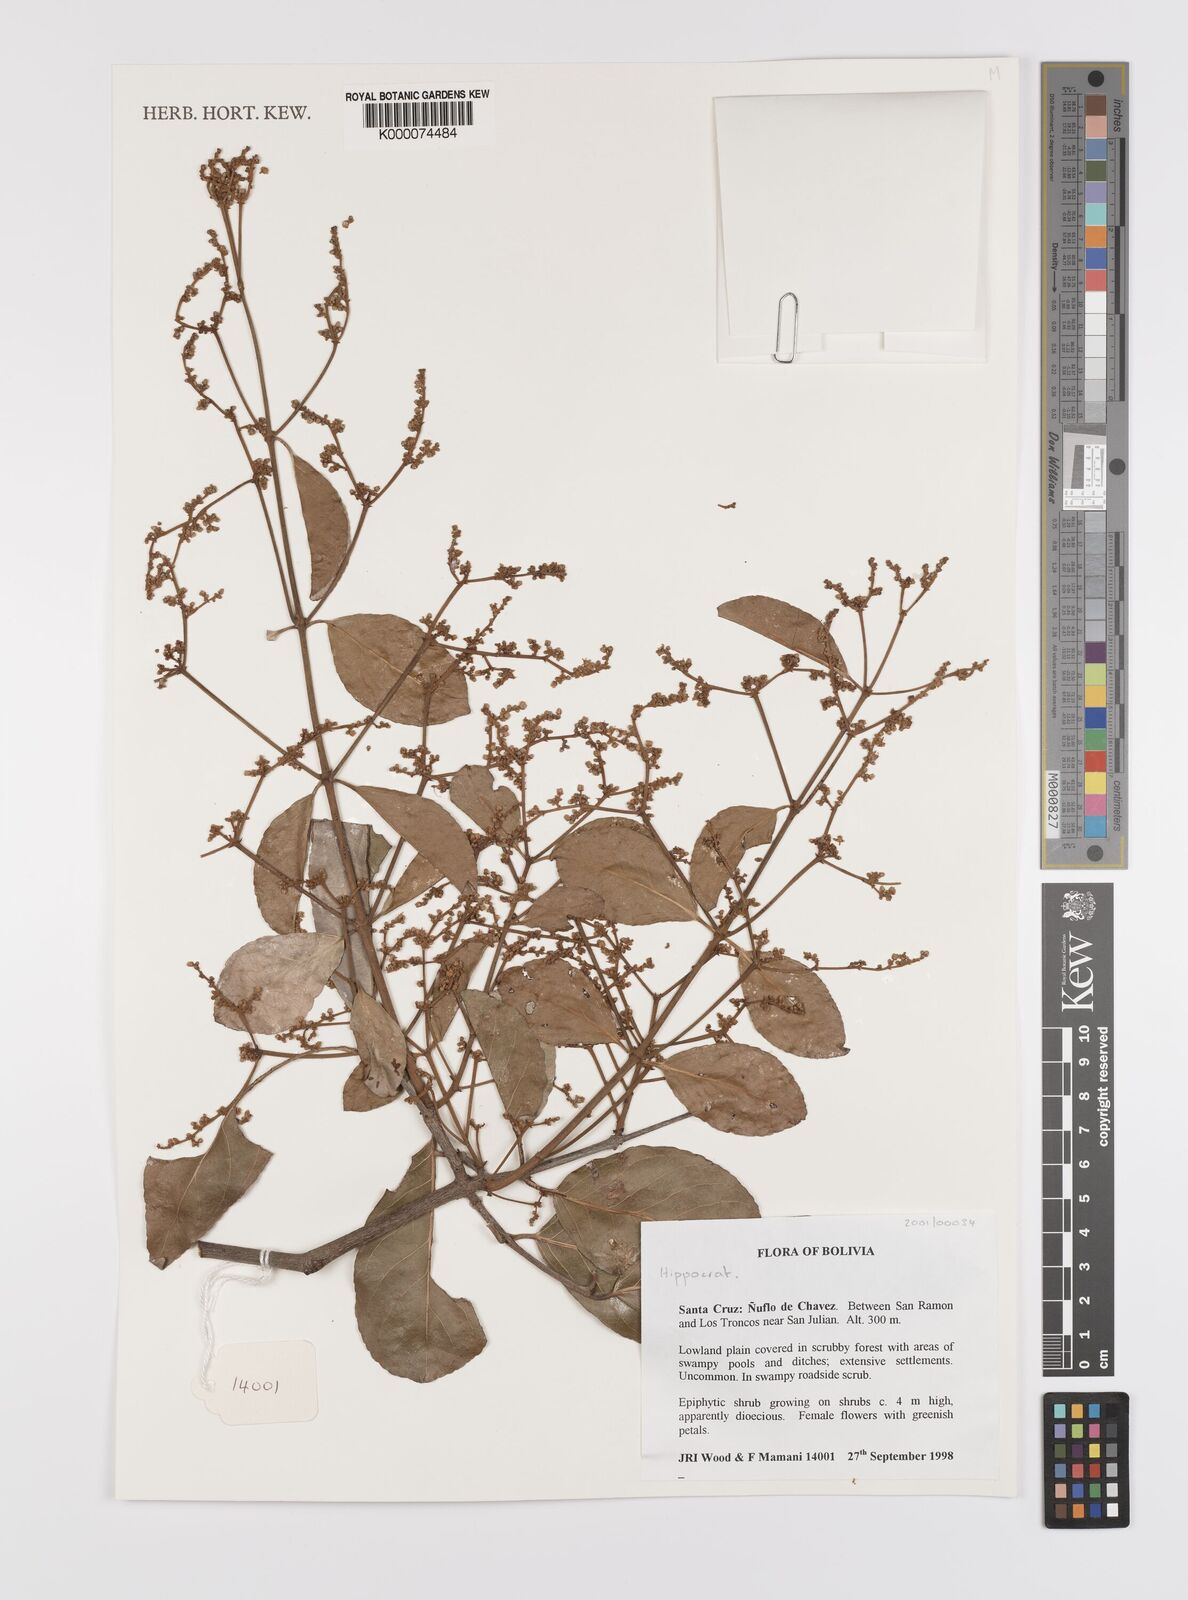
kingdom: Plantae
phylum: Tracheophyta
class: Magnoliopsida
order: Celastrales
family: Celastraceae
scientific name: Celastraceae
